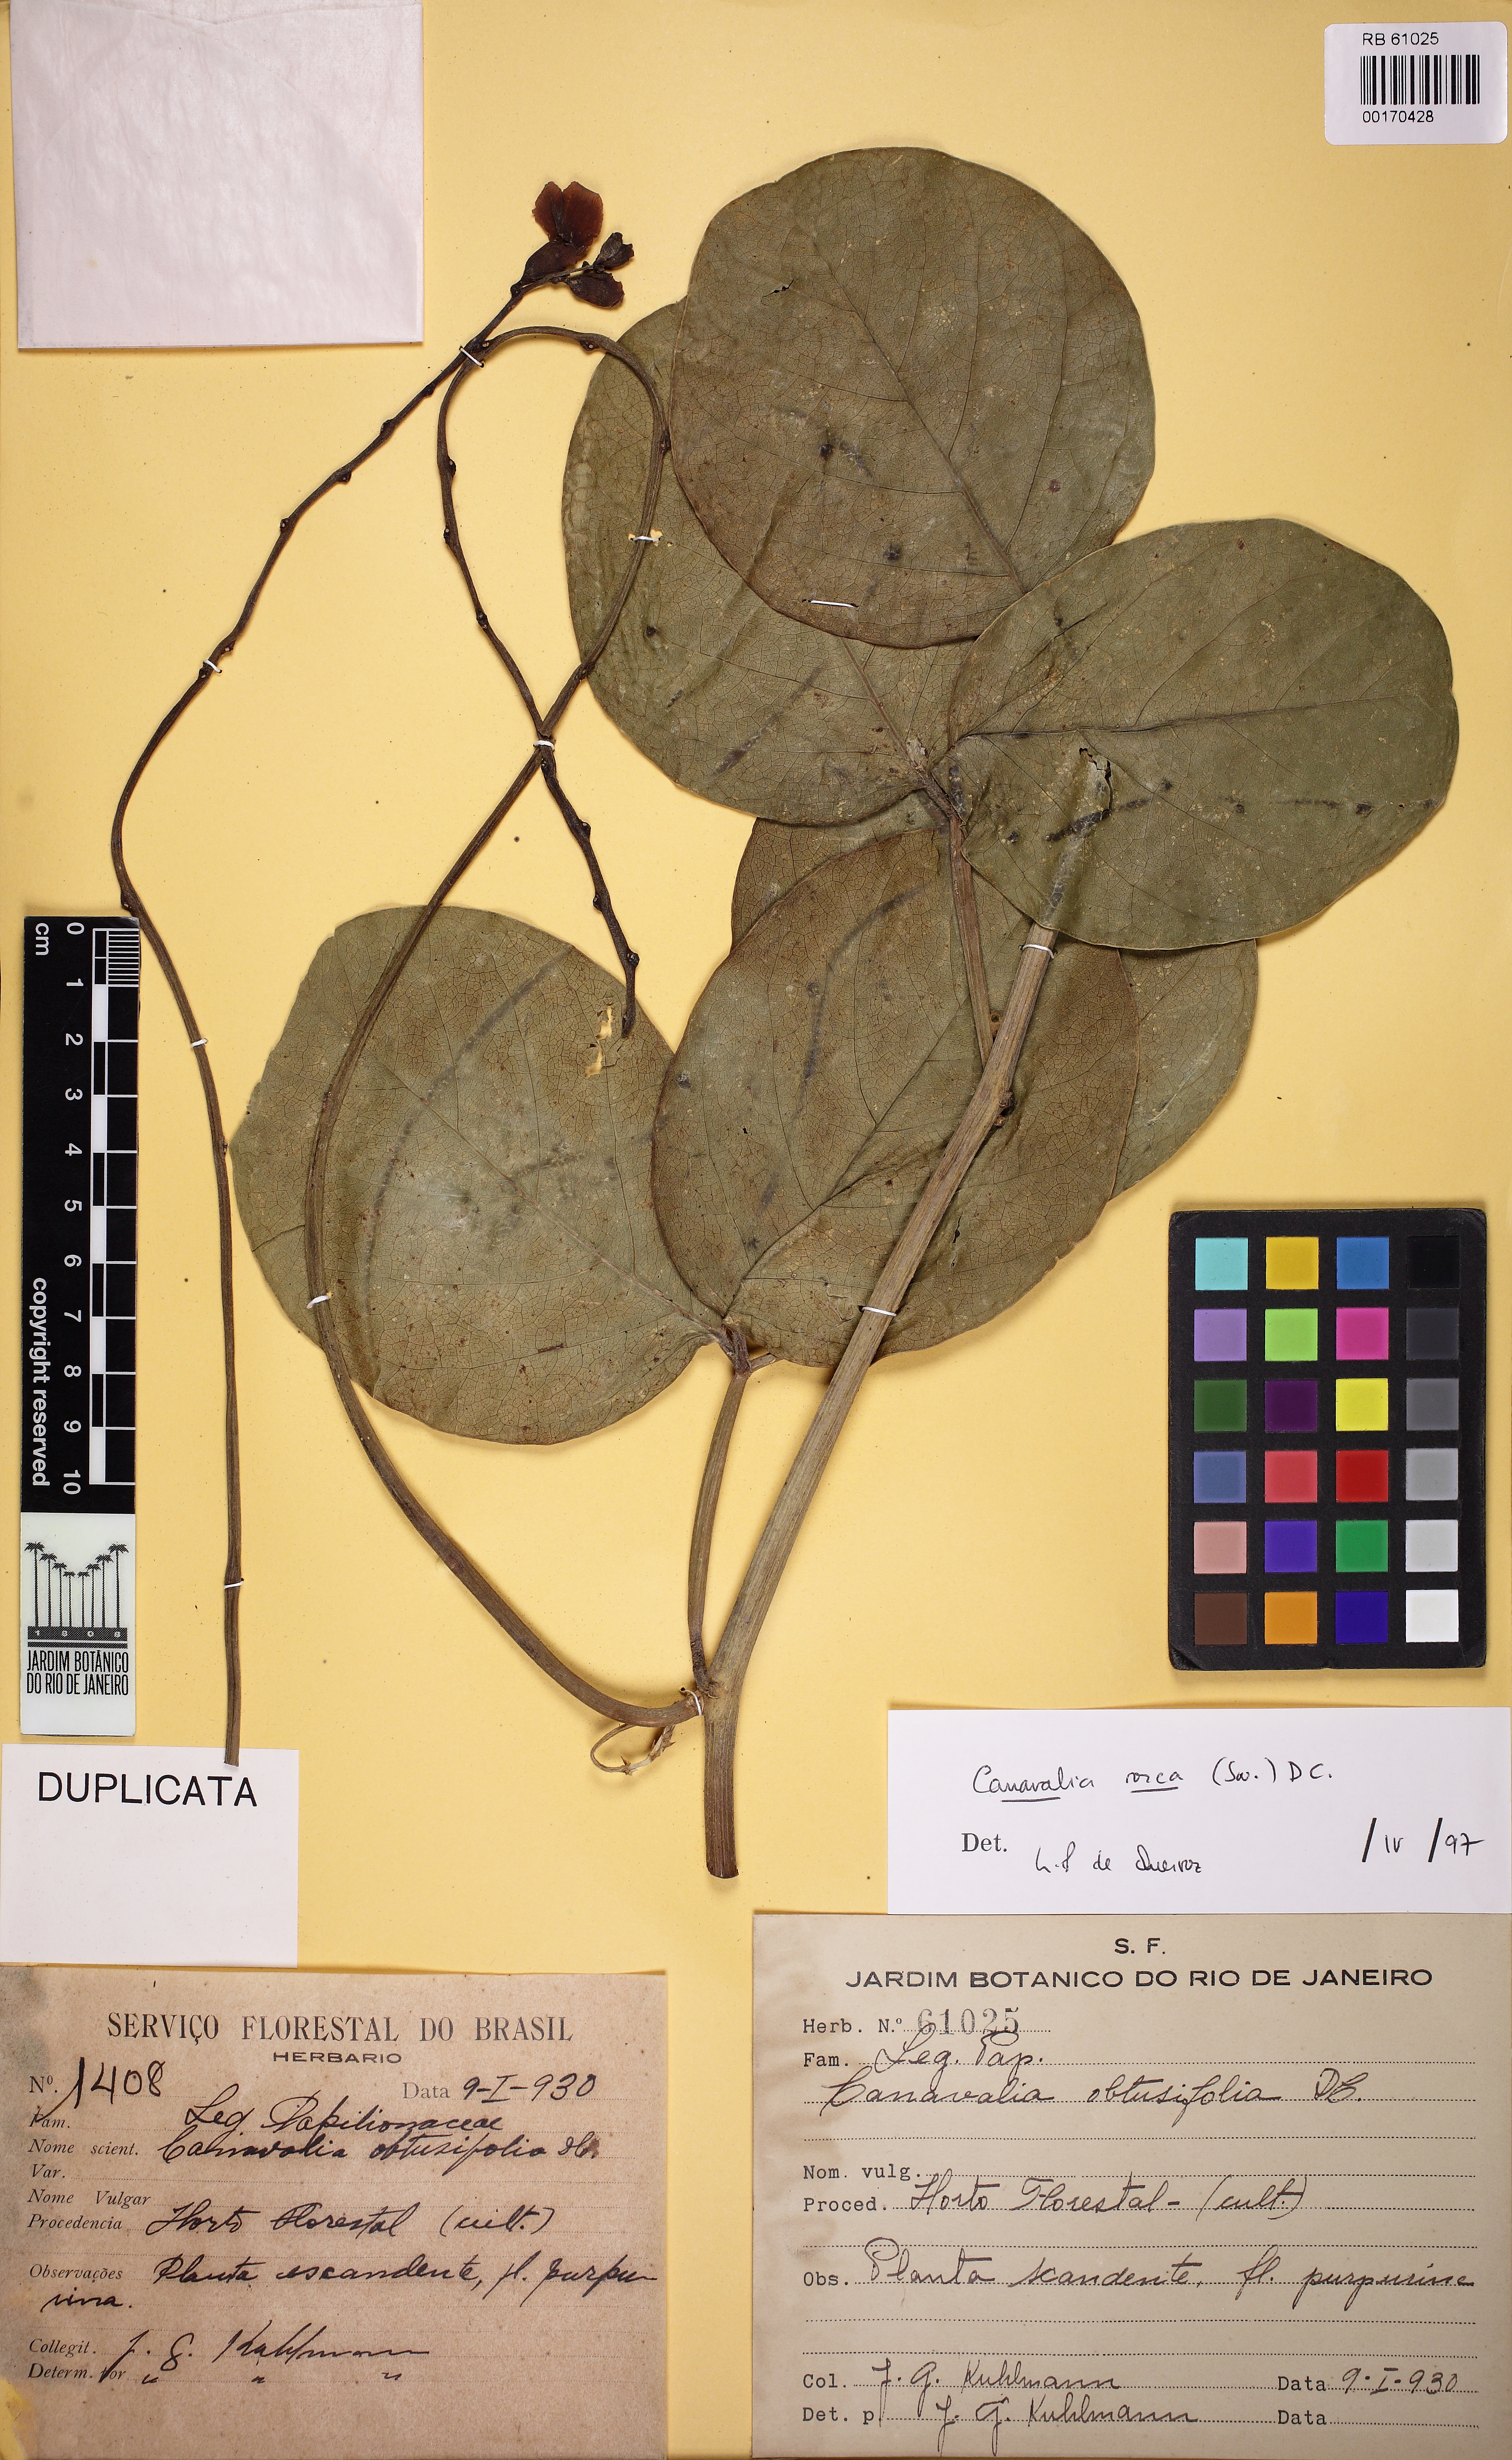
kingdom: Plantae
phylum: Tracheophyta
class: Magnoliopsida
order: Fabales
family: Fabaceae
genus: Canavalia
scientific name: Canavalia rosea
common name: Beach-bean
